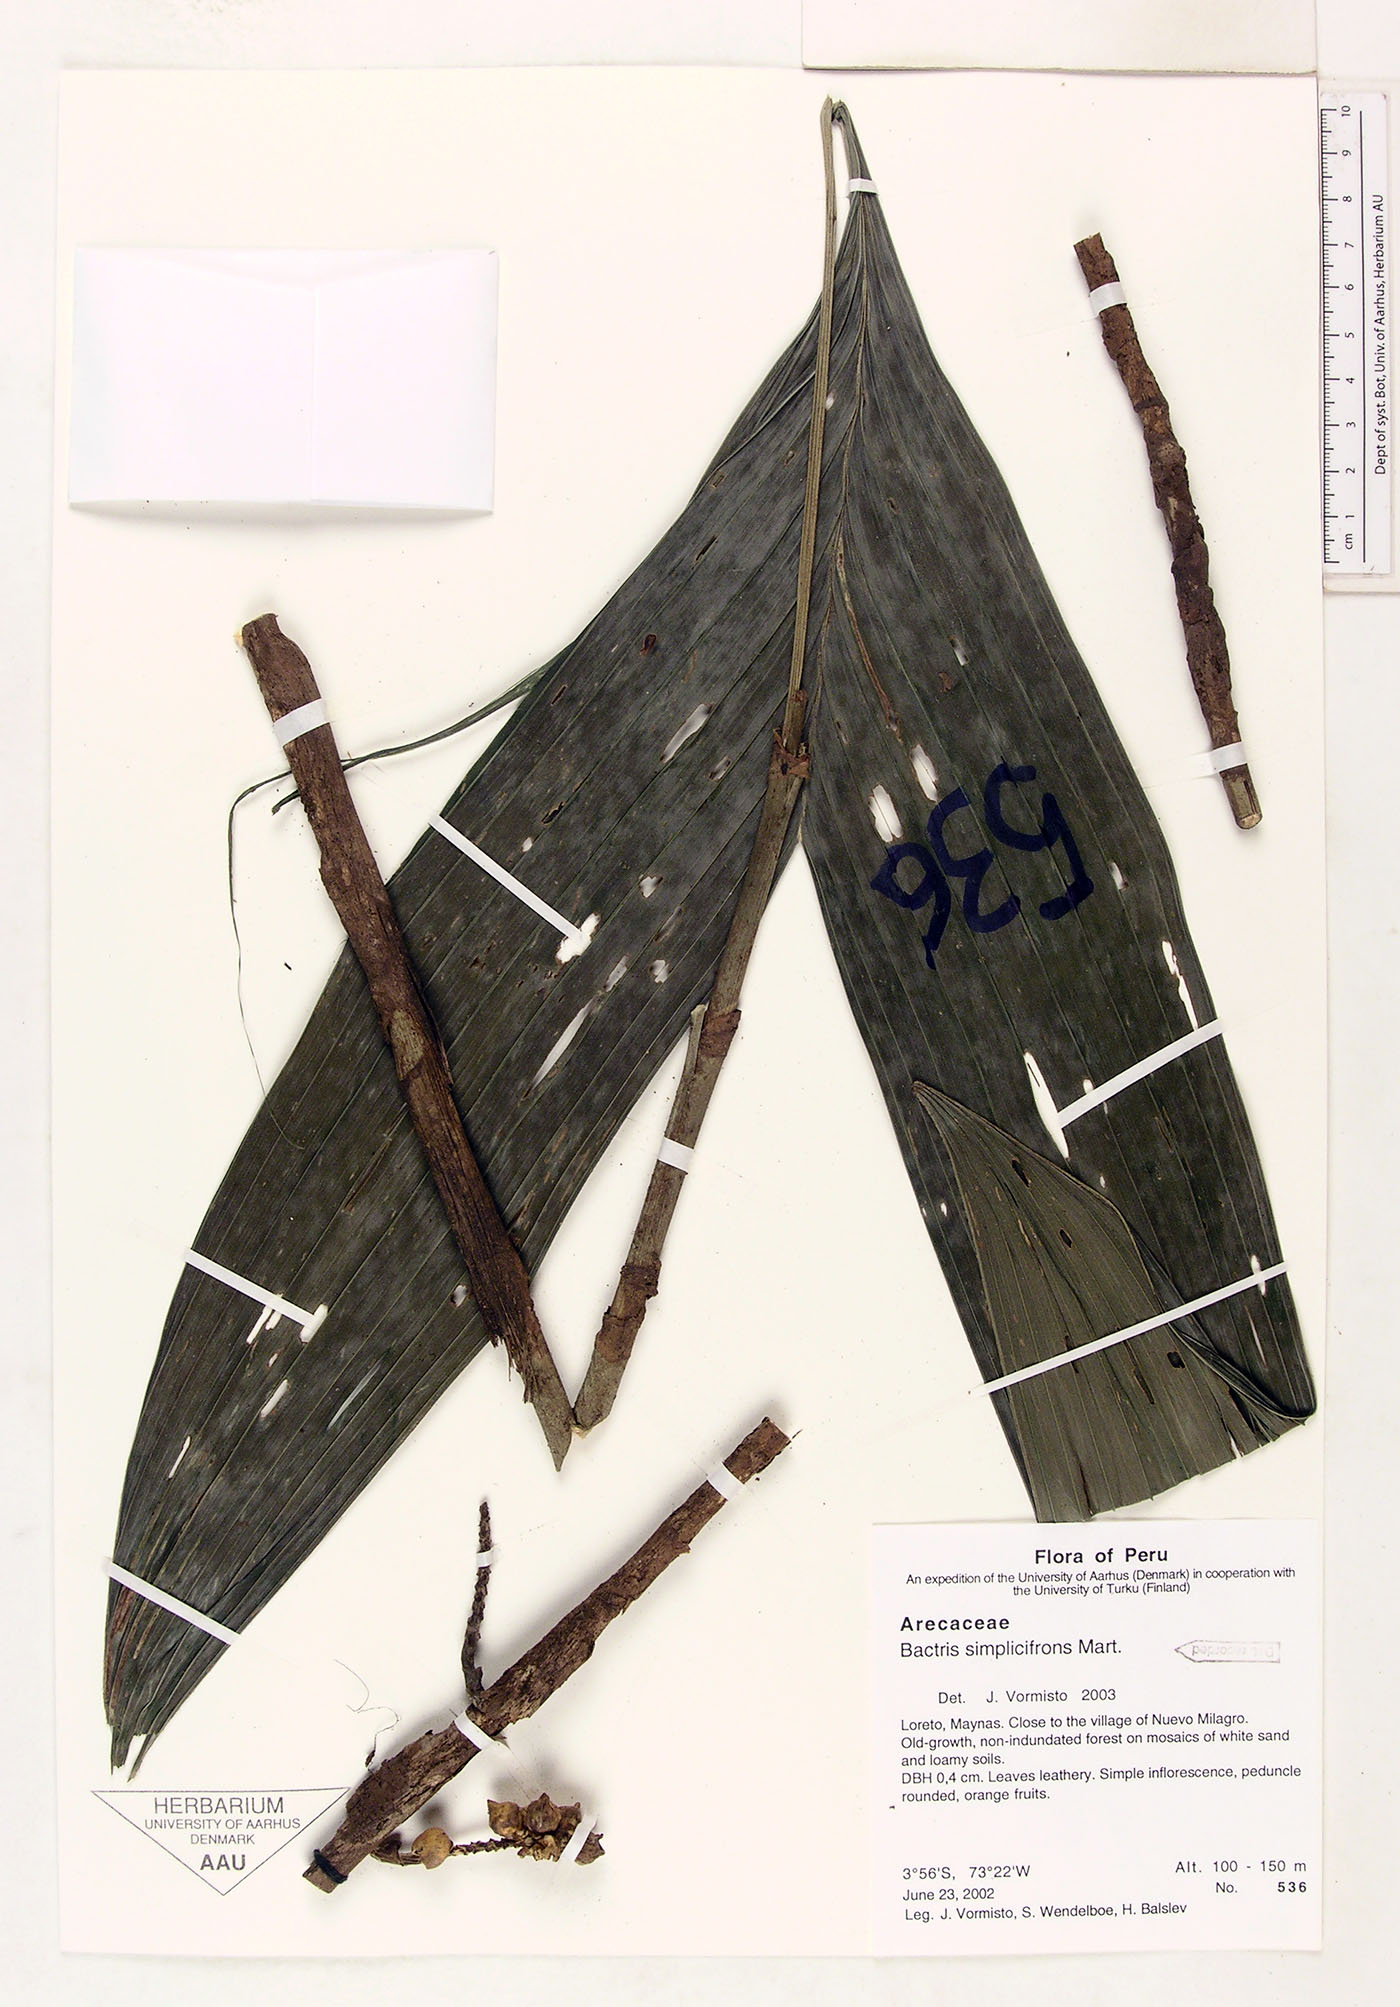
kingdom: Plantae
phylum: Tracheophyta
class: Liliopsida
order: Arecales
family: Arecaceae
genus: Bactris
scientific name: Bactris simplicifrons
